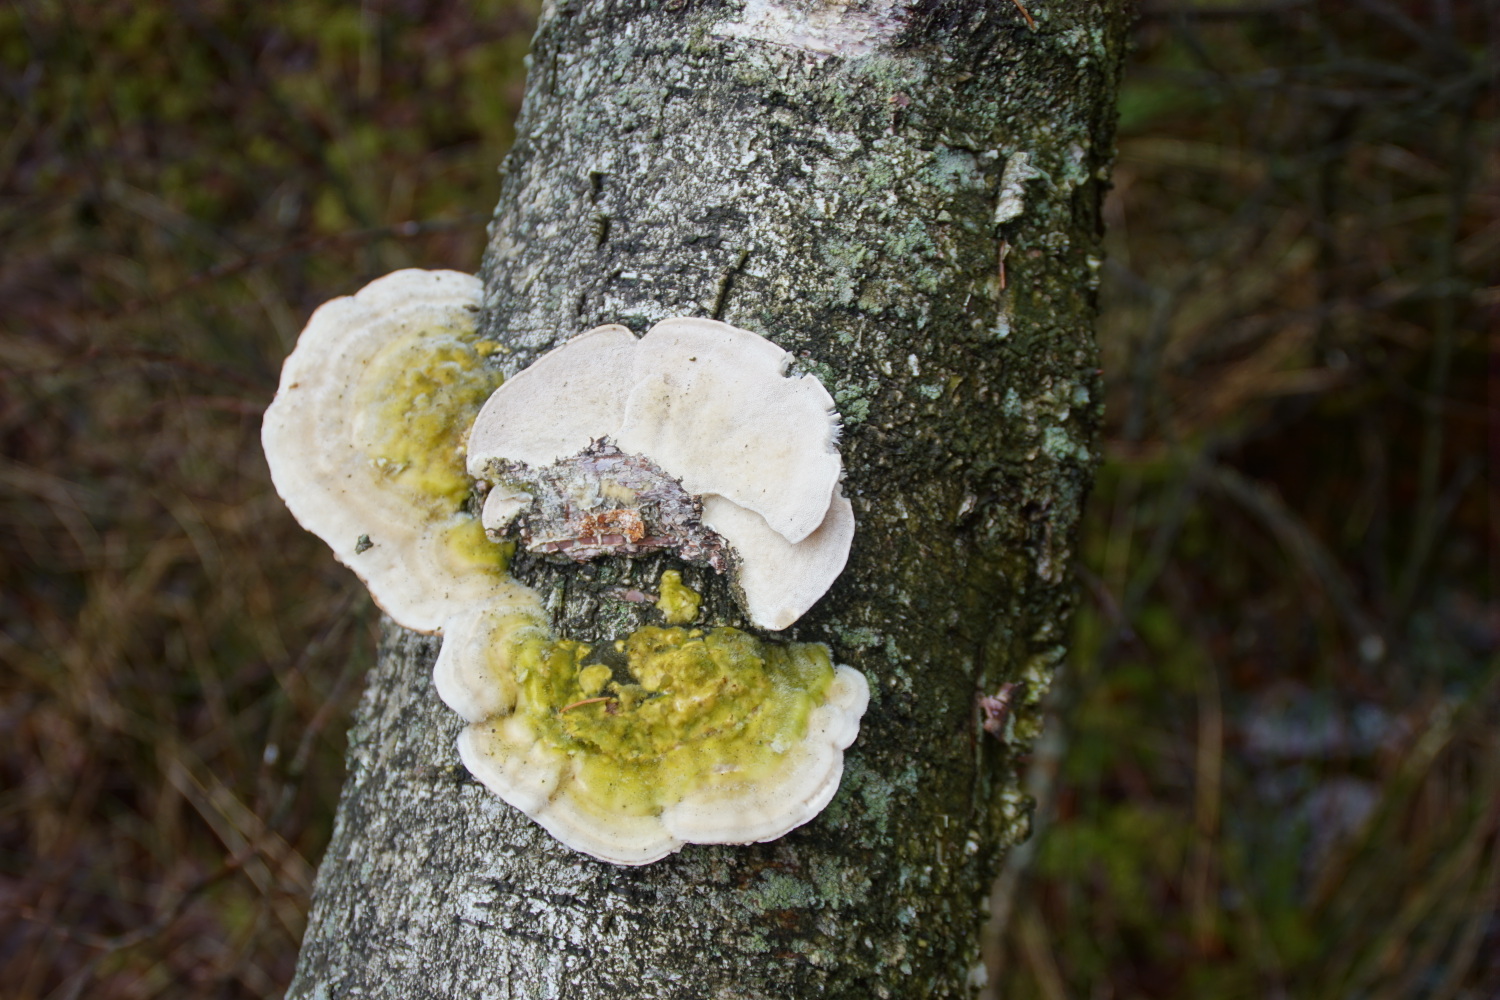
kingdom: Fungi
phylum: Basidiomycota
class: Agaricomycetes
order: Polyporales
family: Polyporaceae
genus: Trametes
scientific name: Trametes hirsuta
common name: håret læderporesvamp
